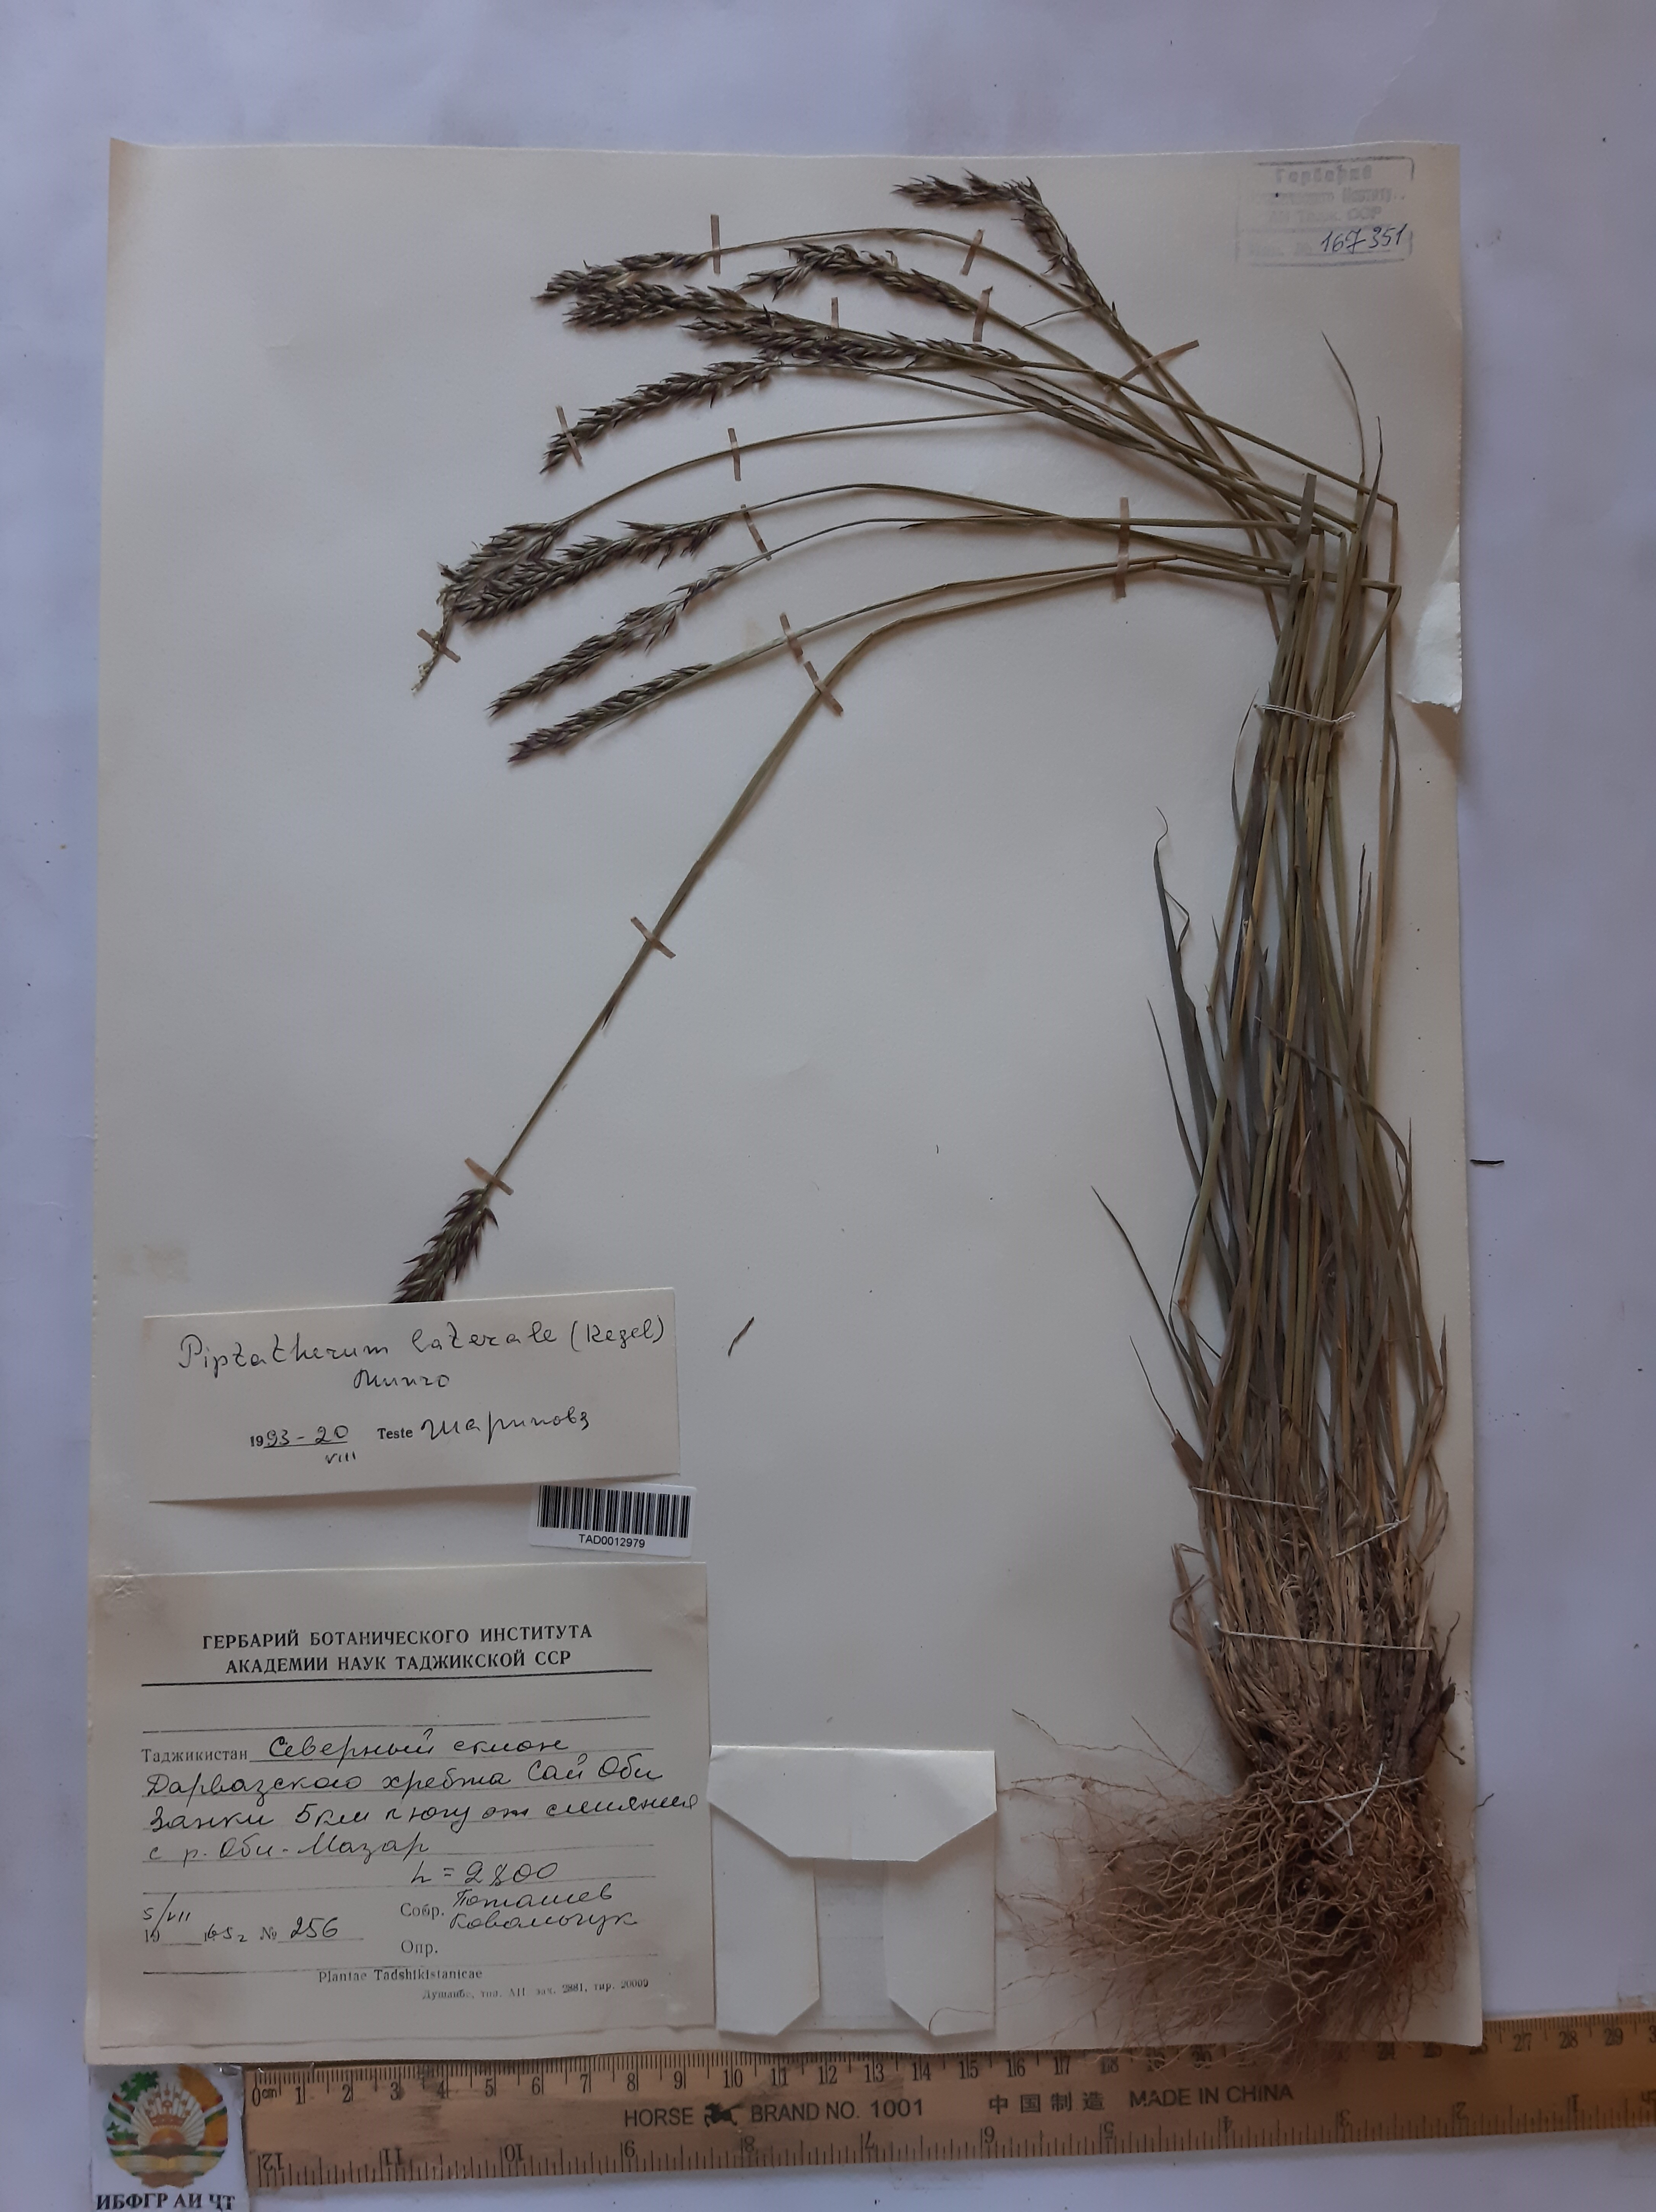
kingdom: Plantae
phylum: Tracheophyta
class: Liliopsida
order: Poales
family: Poaceae
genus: Piptatherum
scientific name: Piptatherum laterale
